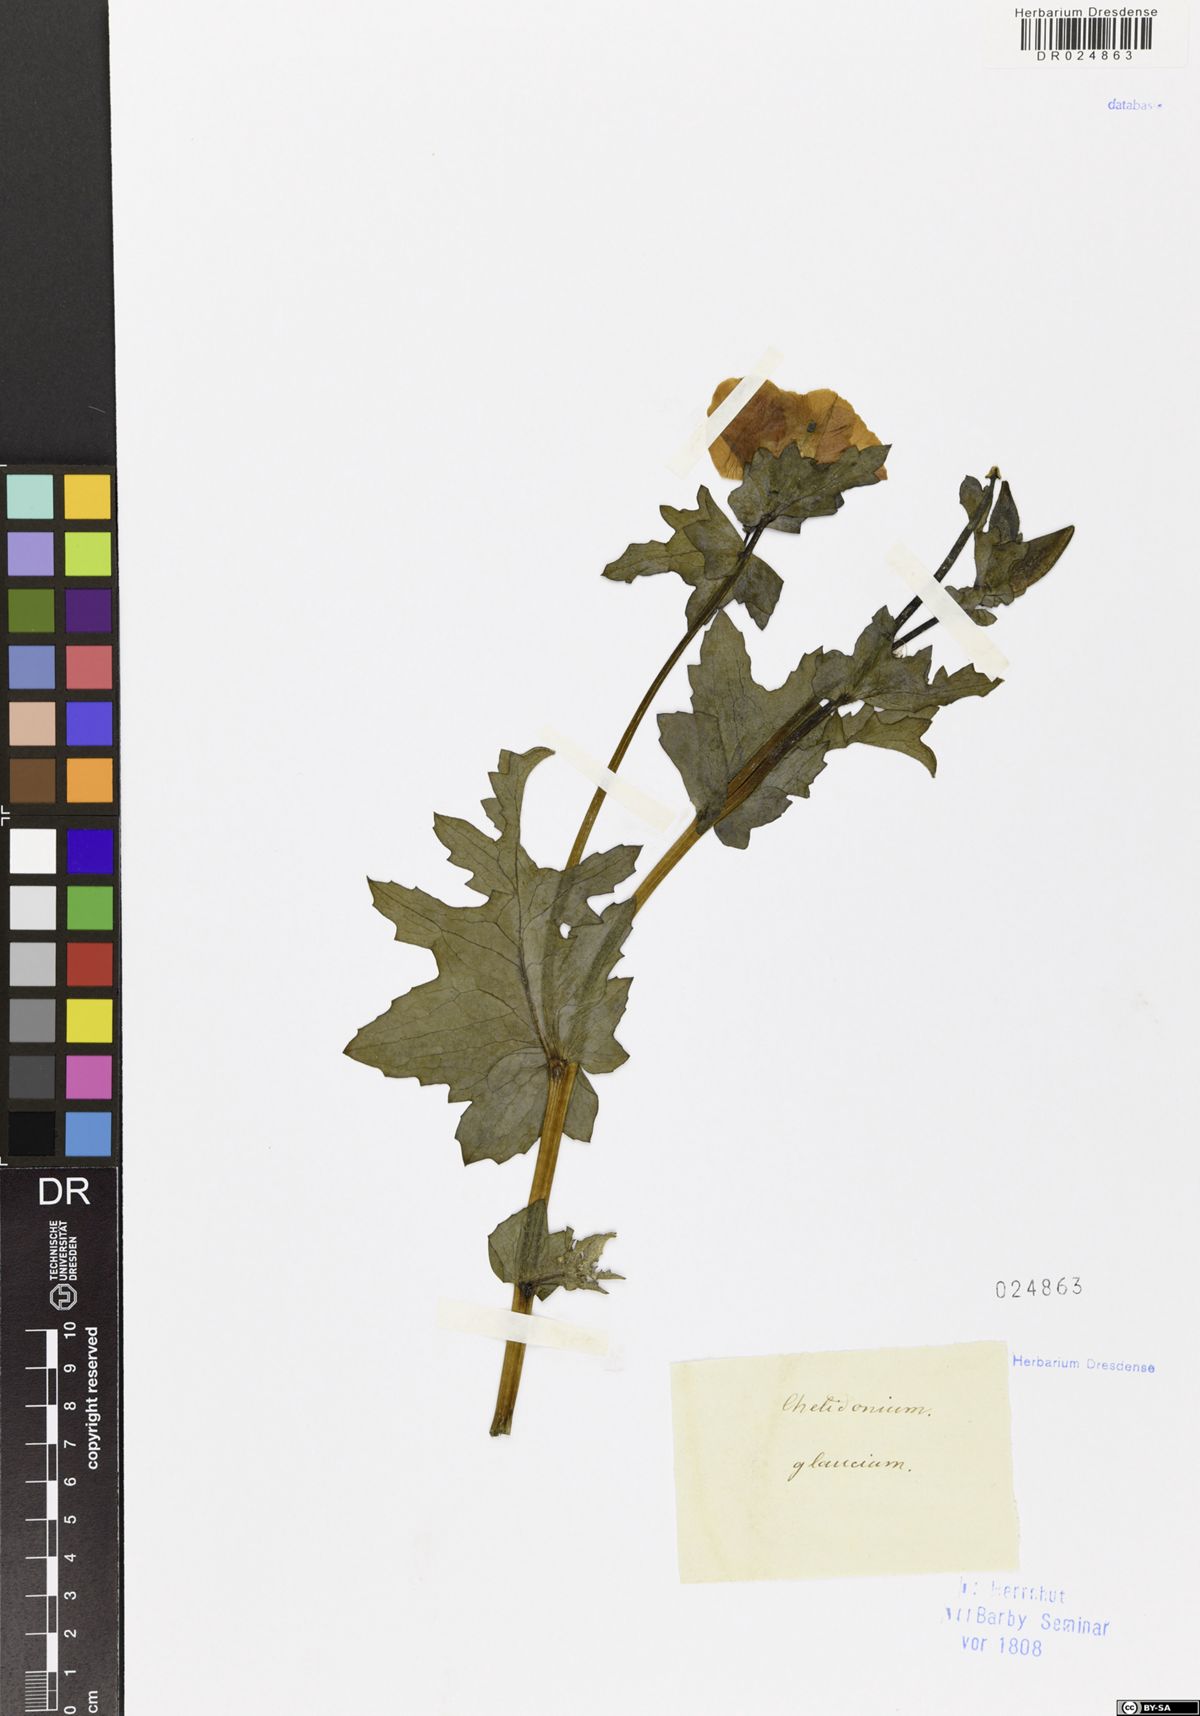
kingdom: Plantae
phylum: Tracheophyta
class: Magnoliopsida
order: Ranunculales
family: Papaveraceae
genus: Glaucium
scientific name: Glaucium flavum
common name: Yellow horned-poppy
